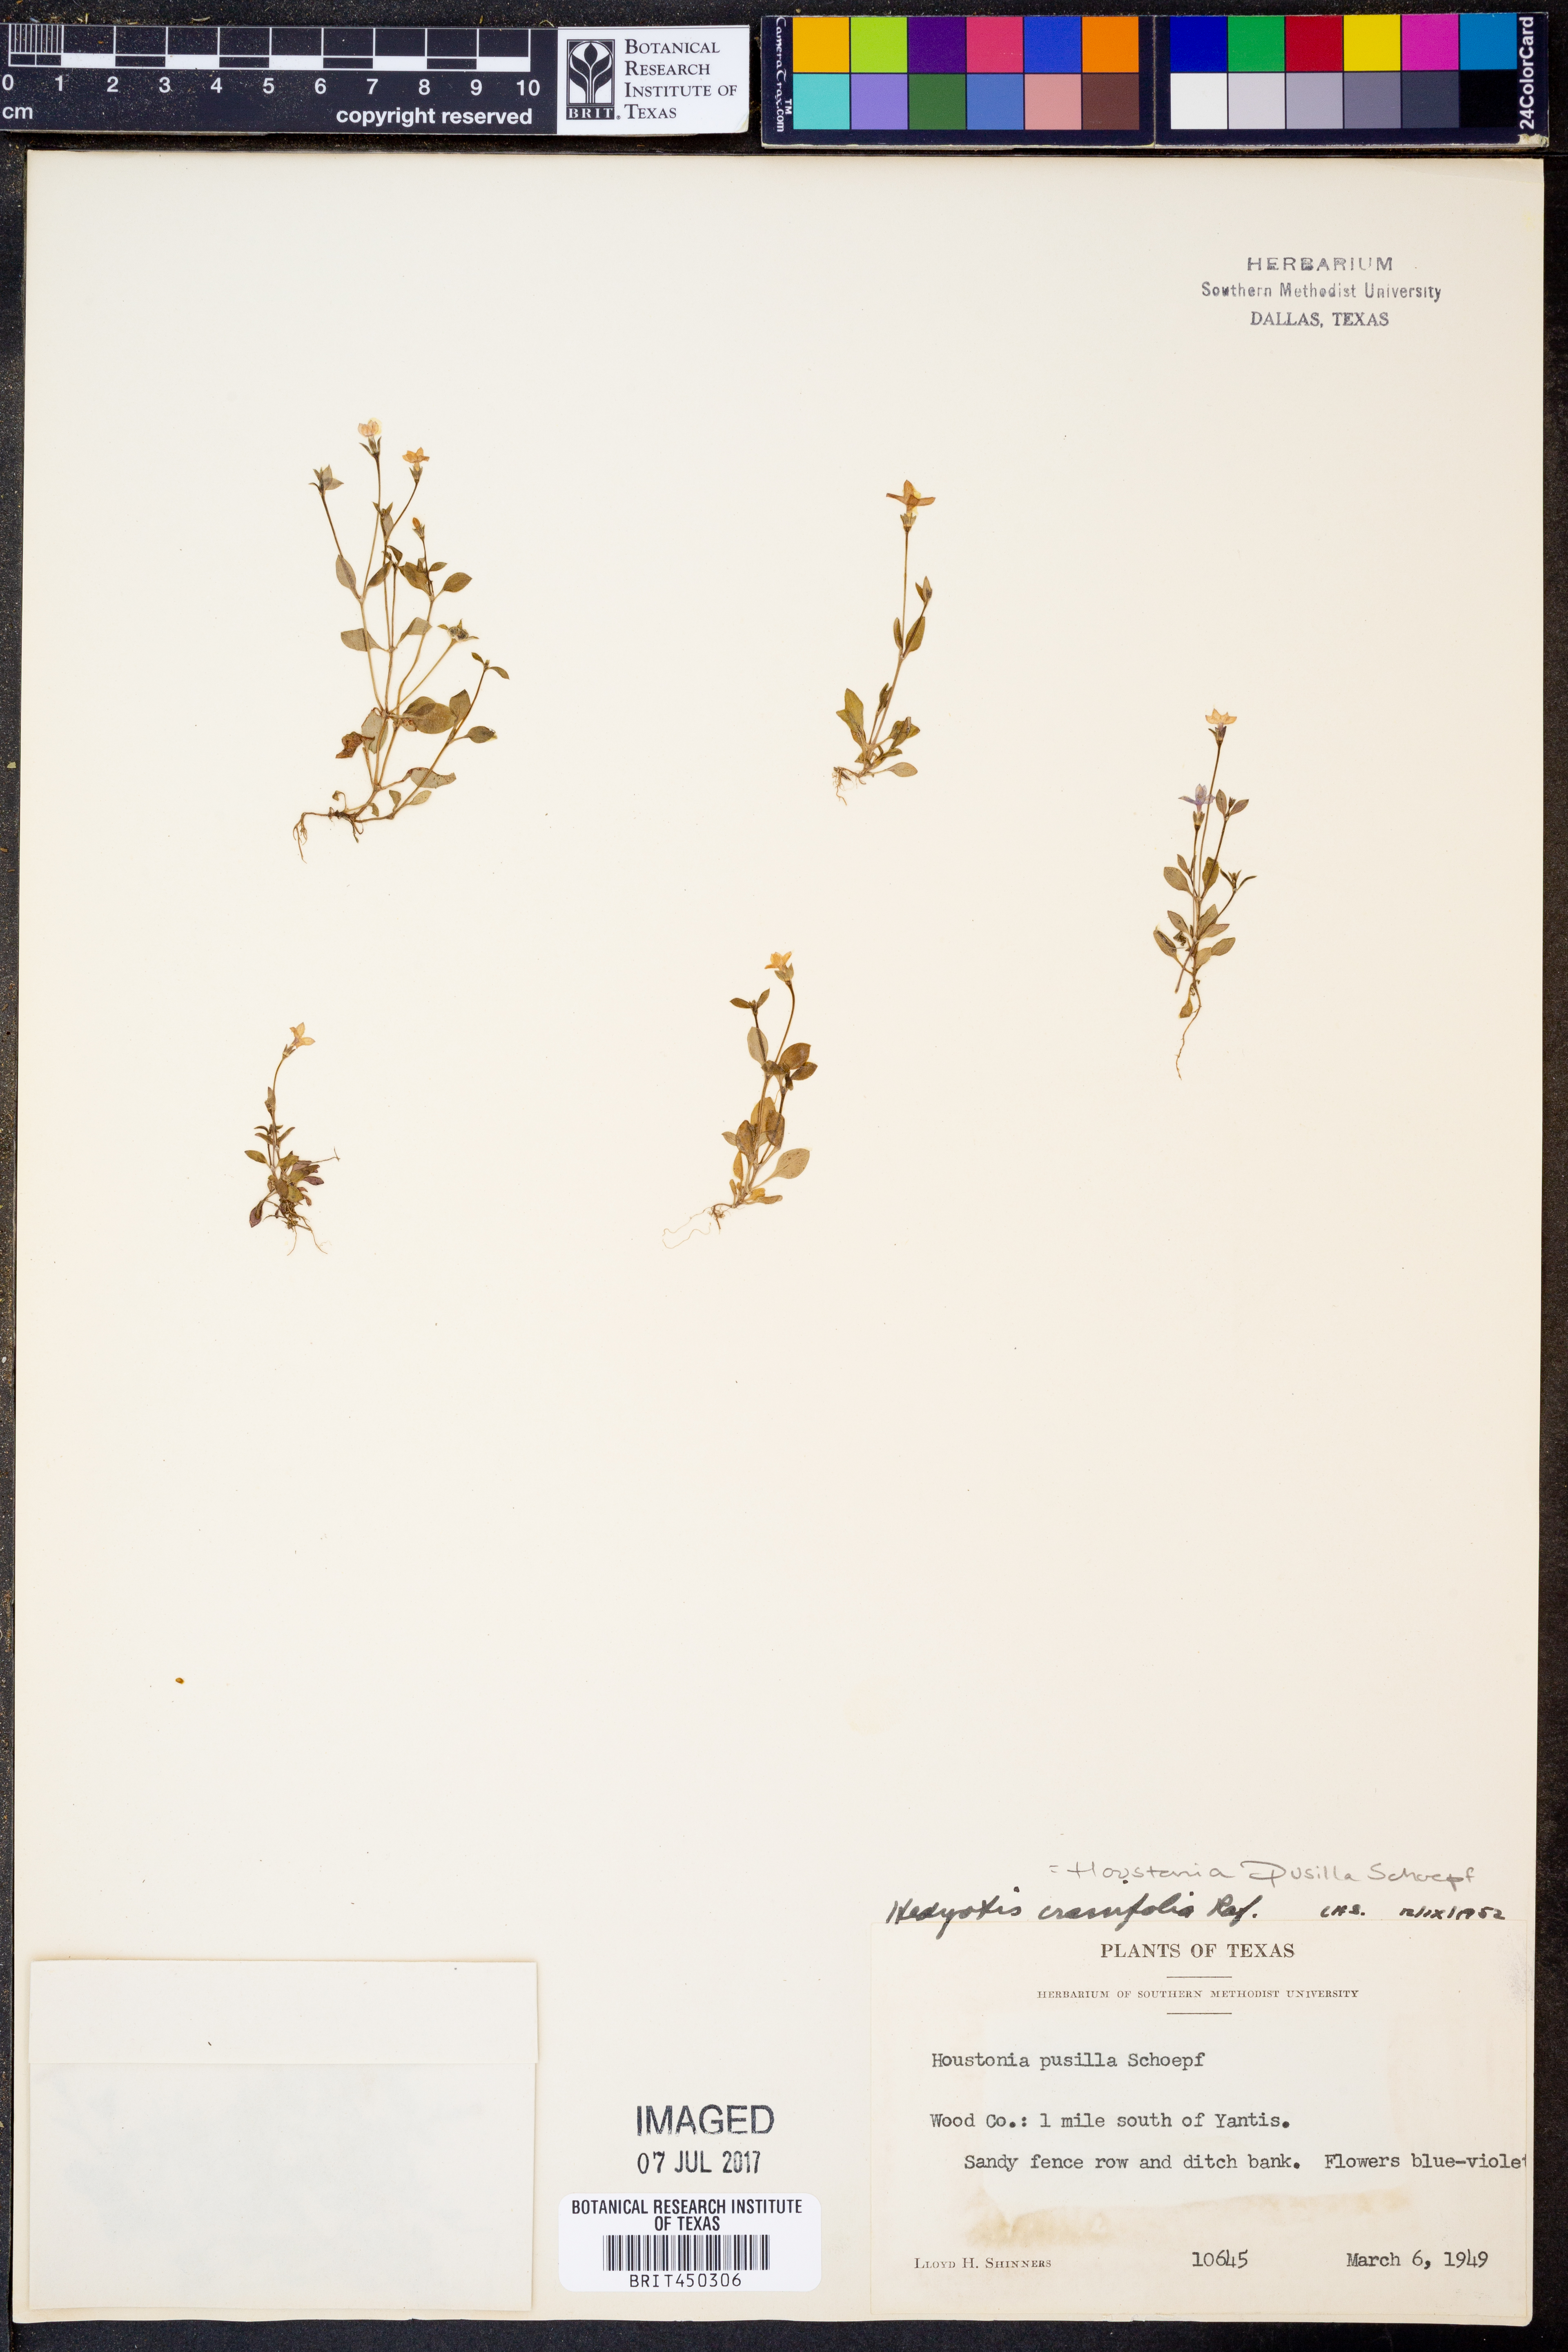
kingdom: Plantae
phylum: Tracheophyta
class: Magnoliopsida
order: Gentianales
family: Rubiaceae
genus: Houstonia
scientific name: Houstonia pusilla
